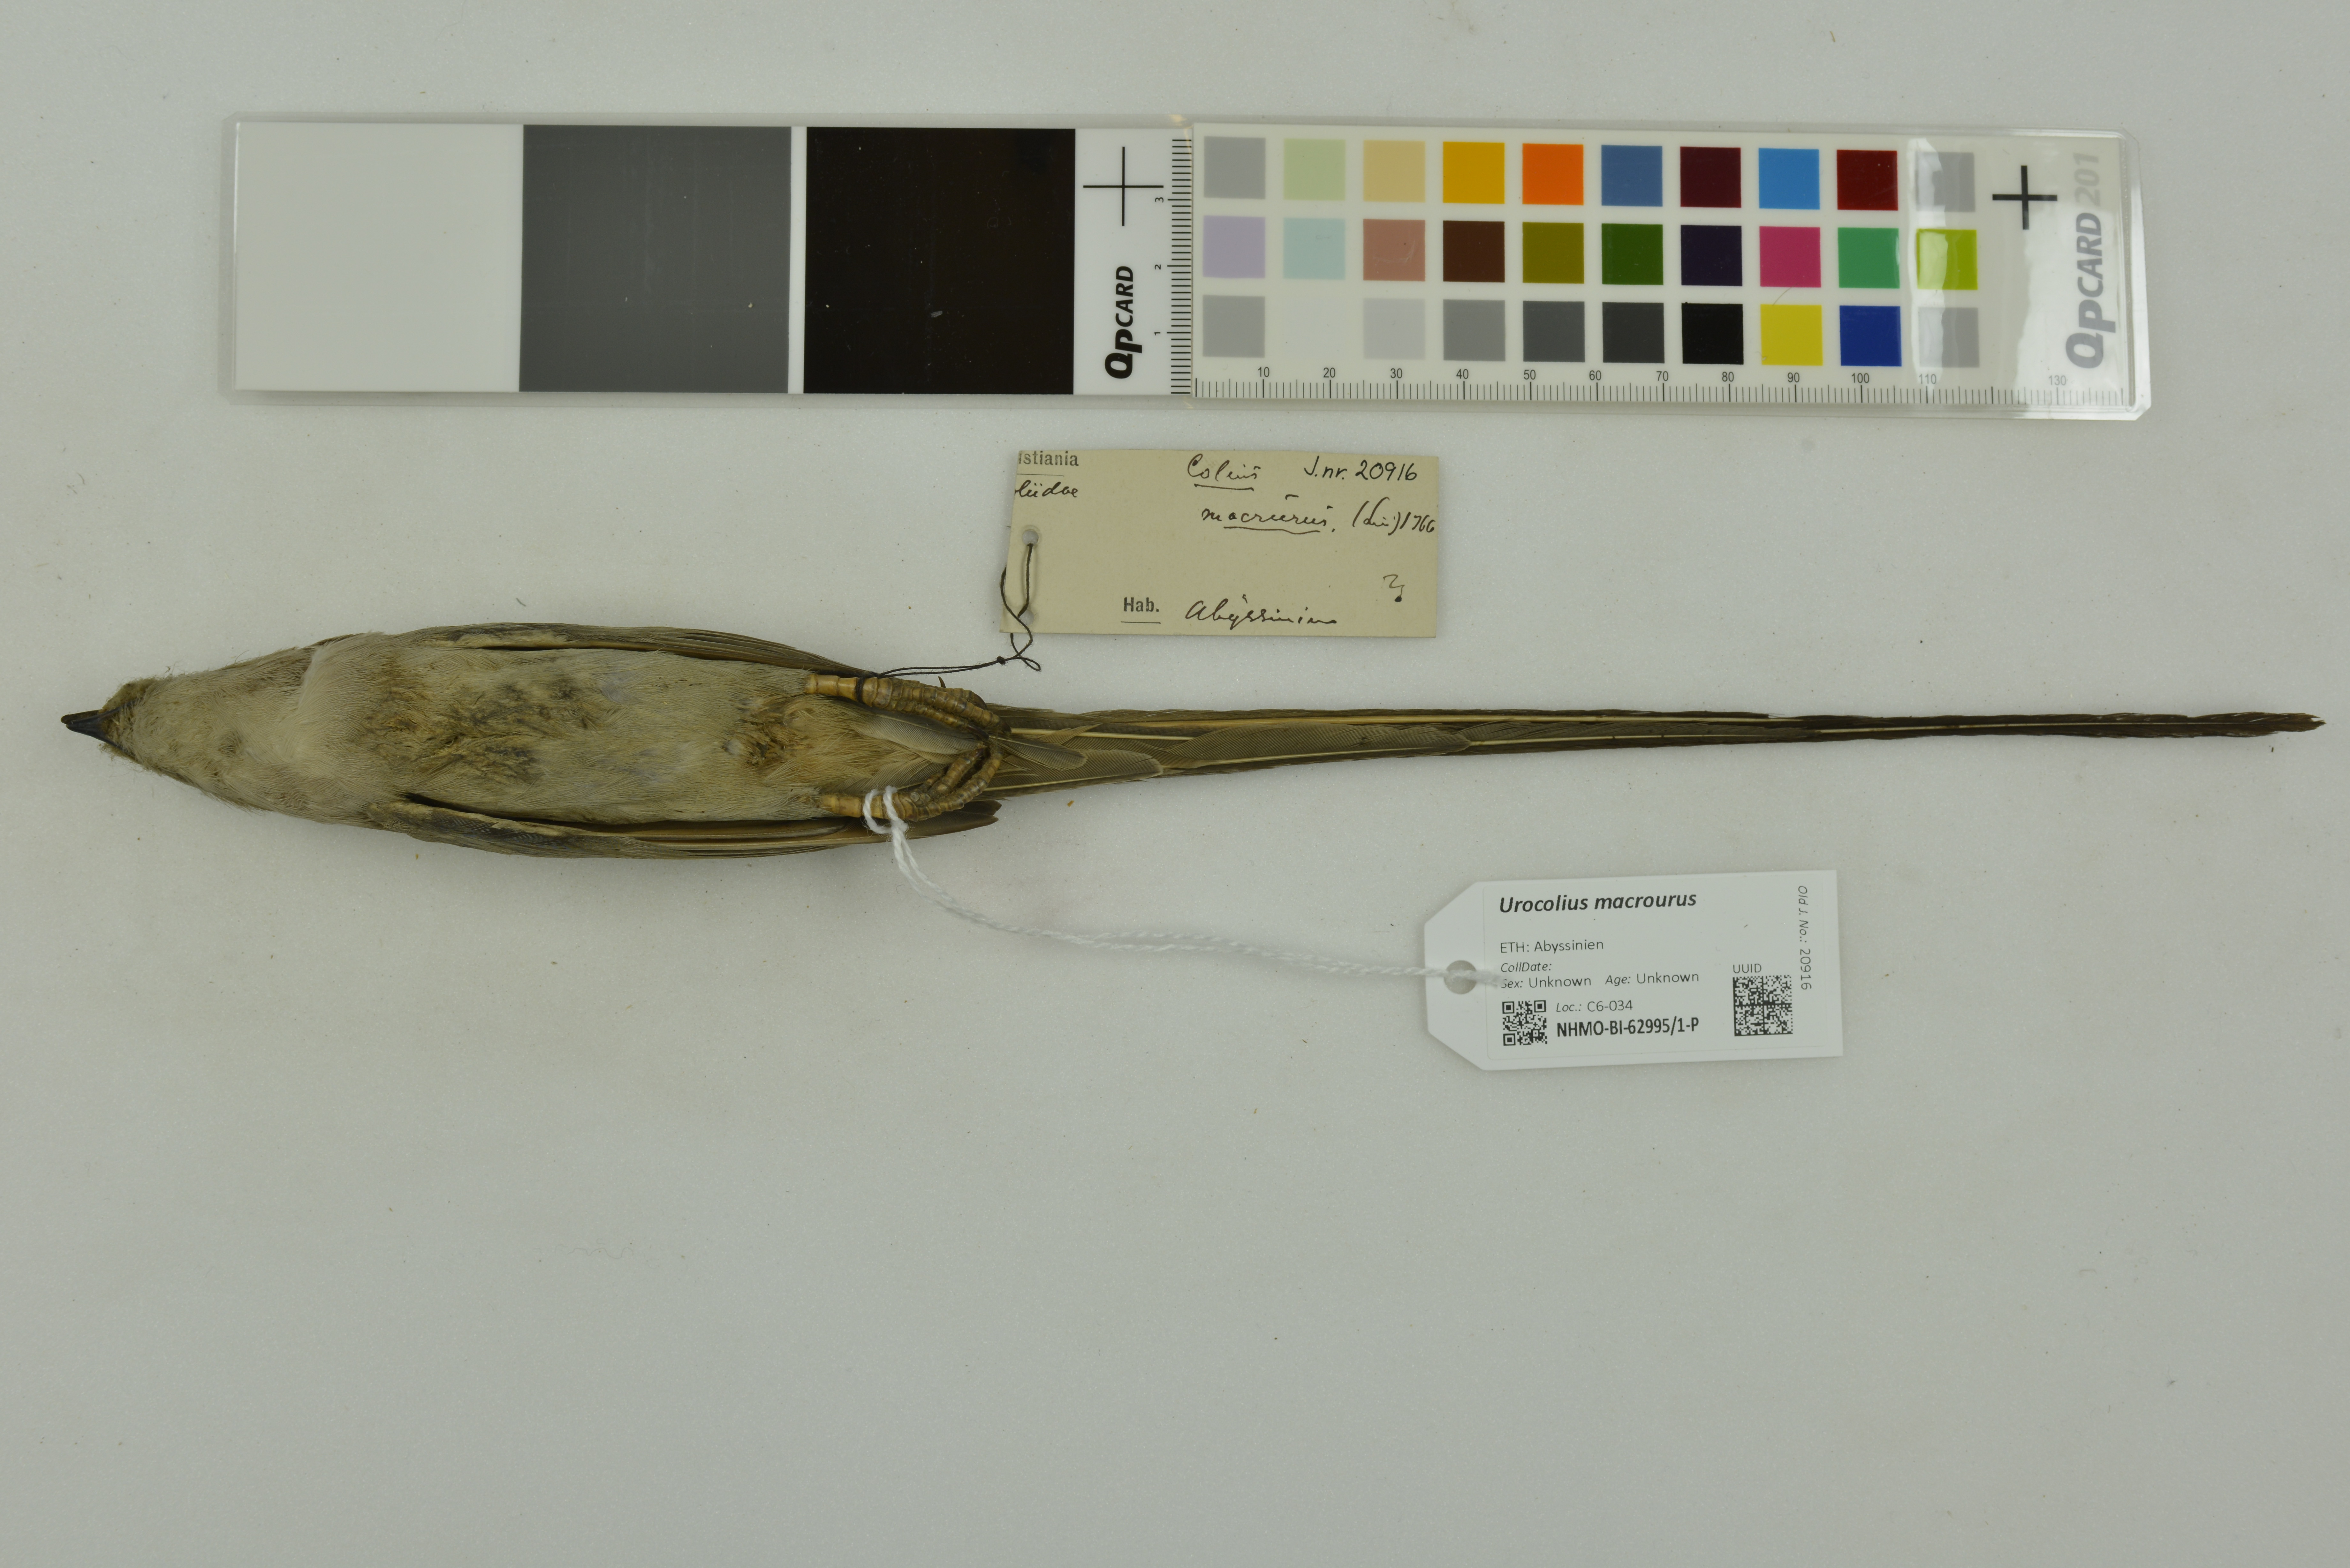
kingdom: Animalia
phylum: Chordata
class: Aves
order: Coliiformes
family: Coliidae
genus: Urocolius
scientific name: Urocolius macrourus
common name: Blue-naped mousebird
